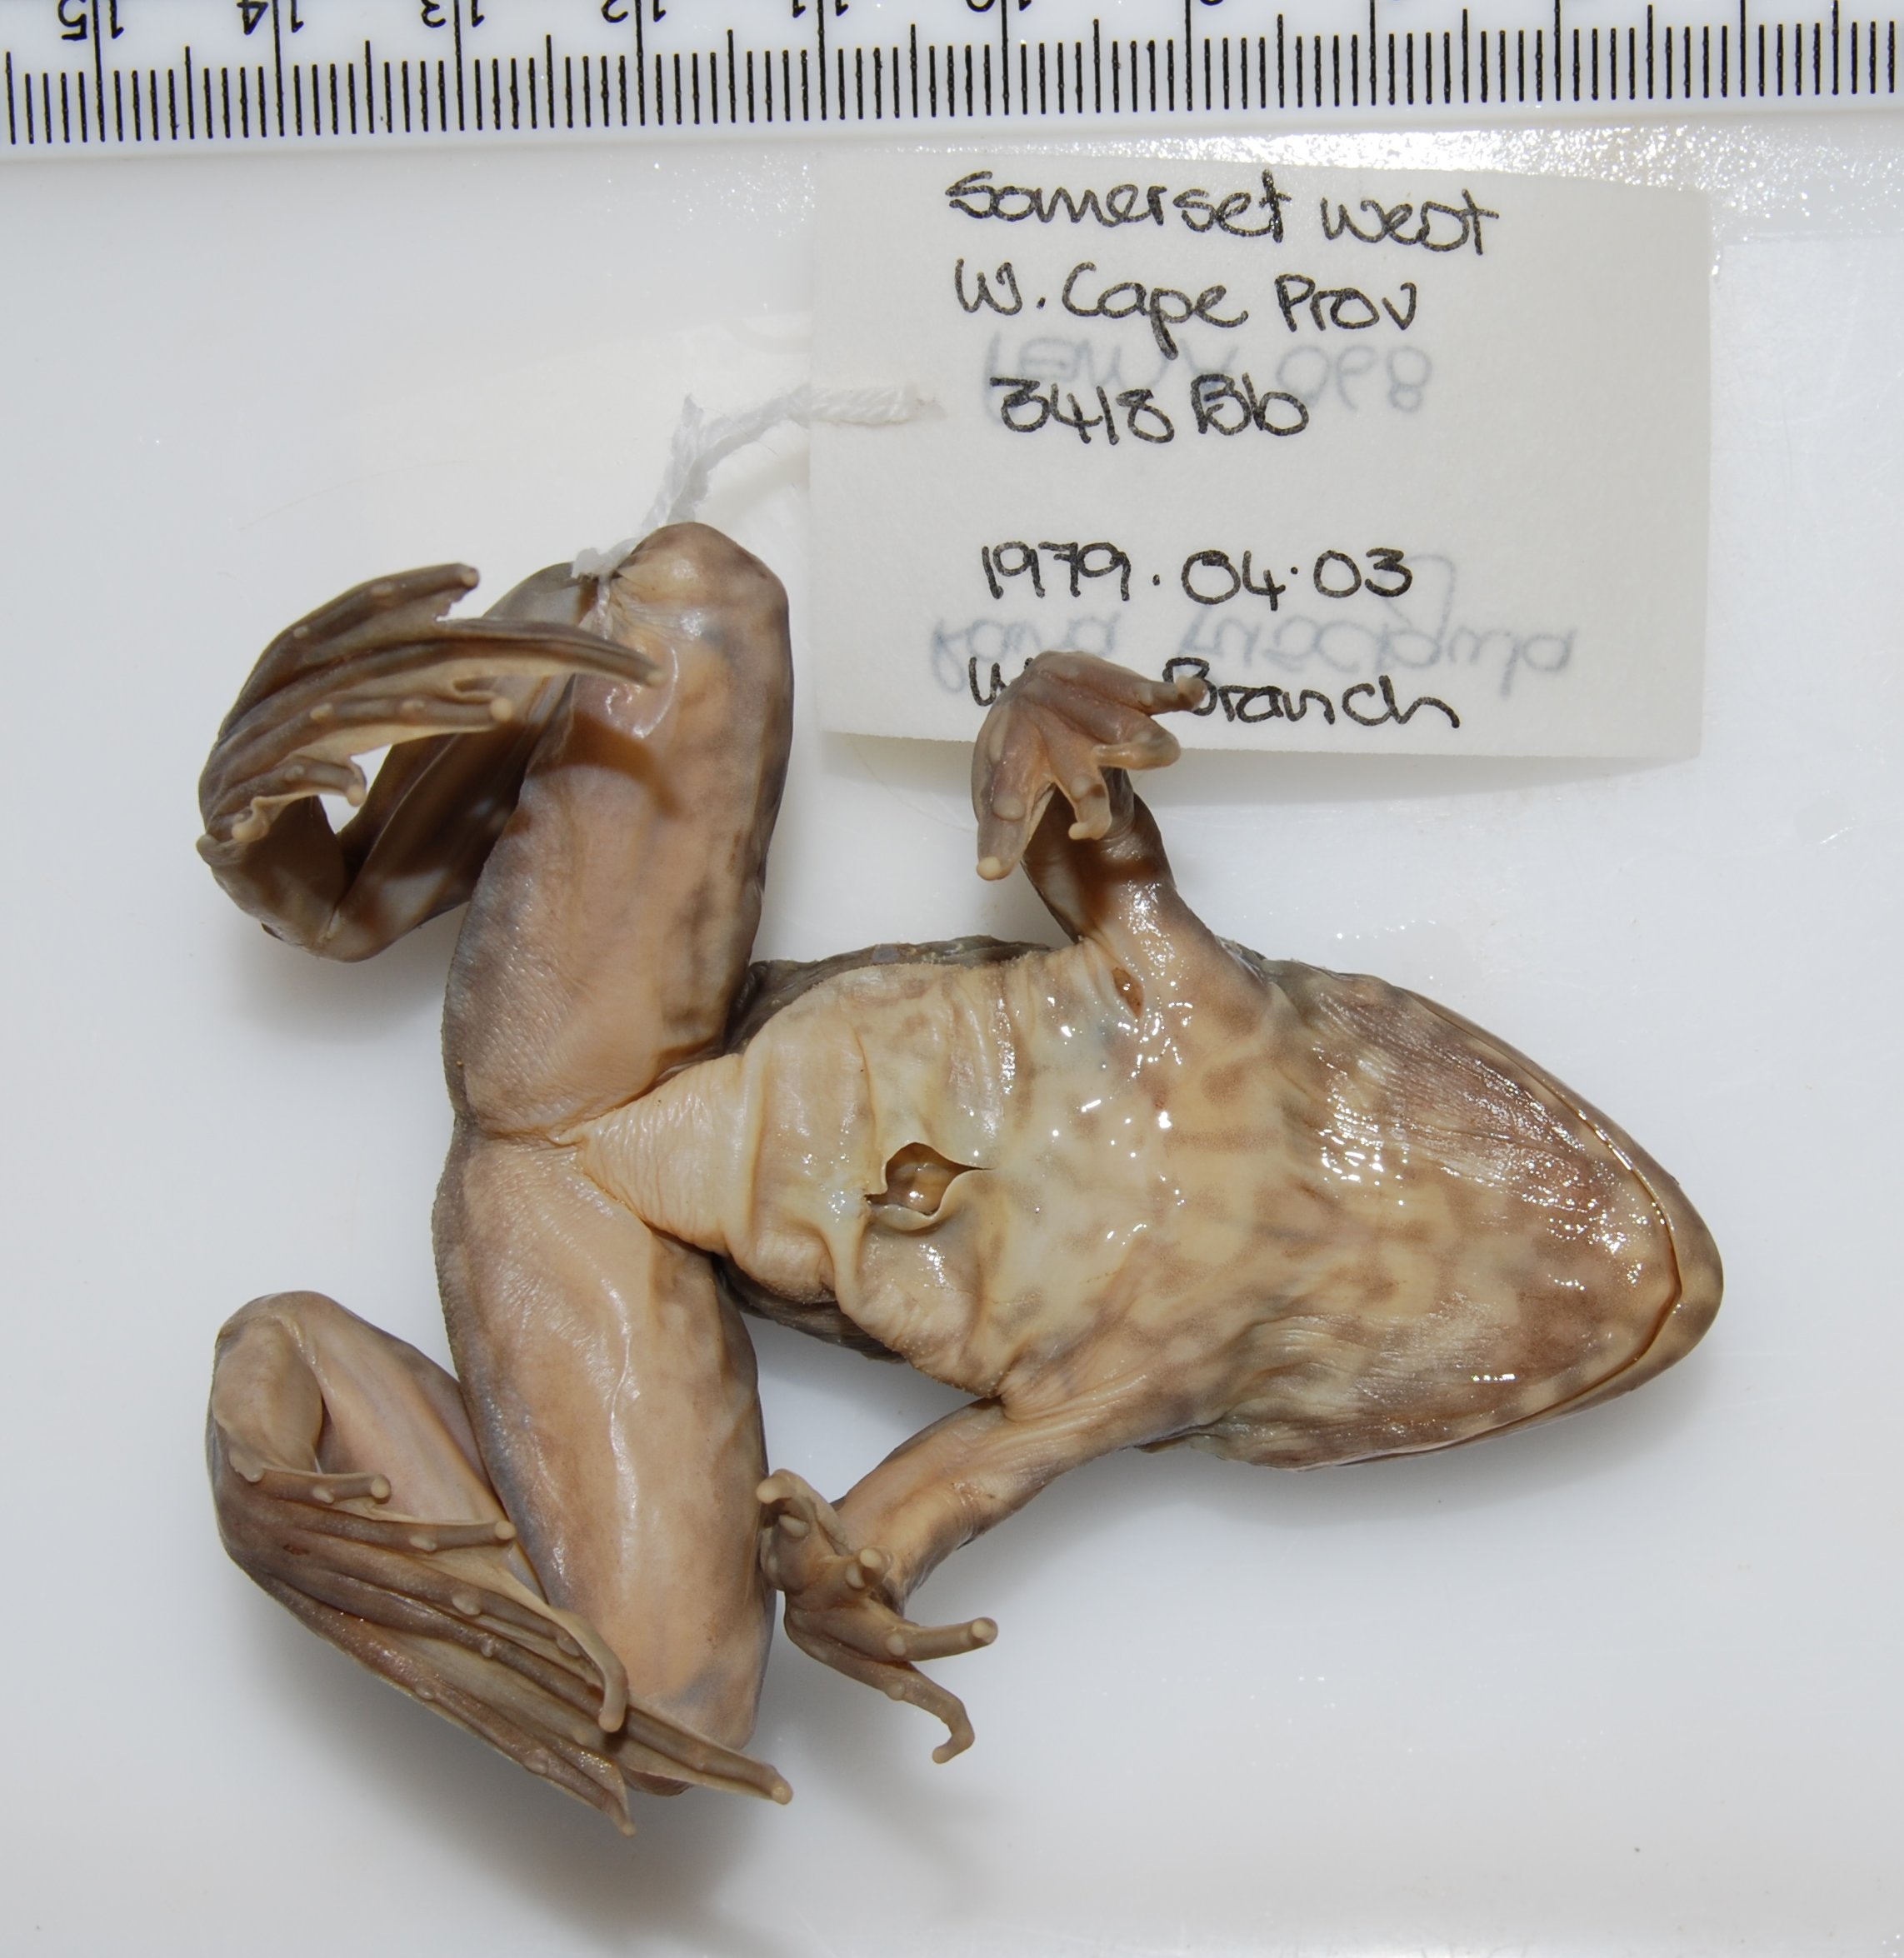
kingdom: Animalia
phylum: Chordata
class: Amphibia
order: Anura
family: Pyxicephalidae
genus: Amietia
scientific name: Amietia fuscigula
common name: Cape rana
